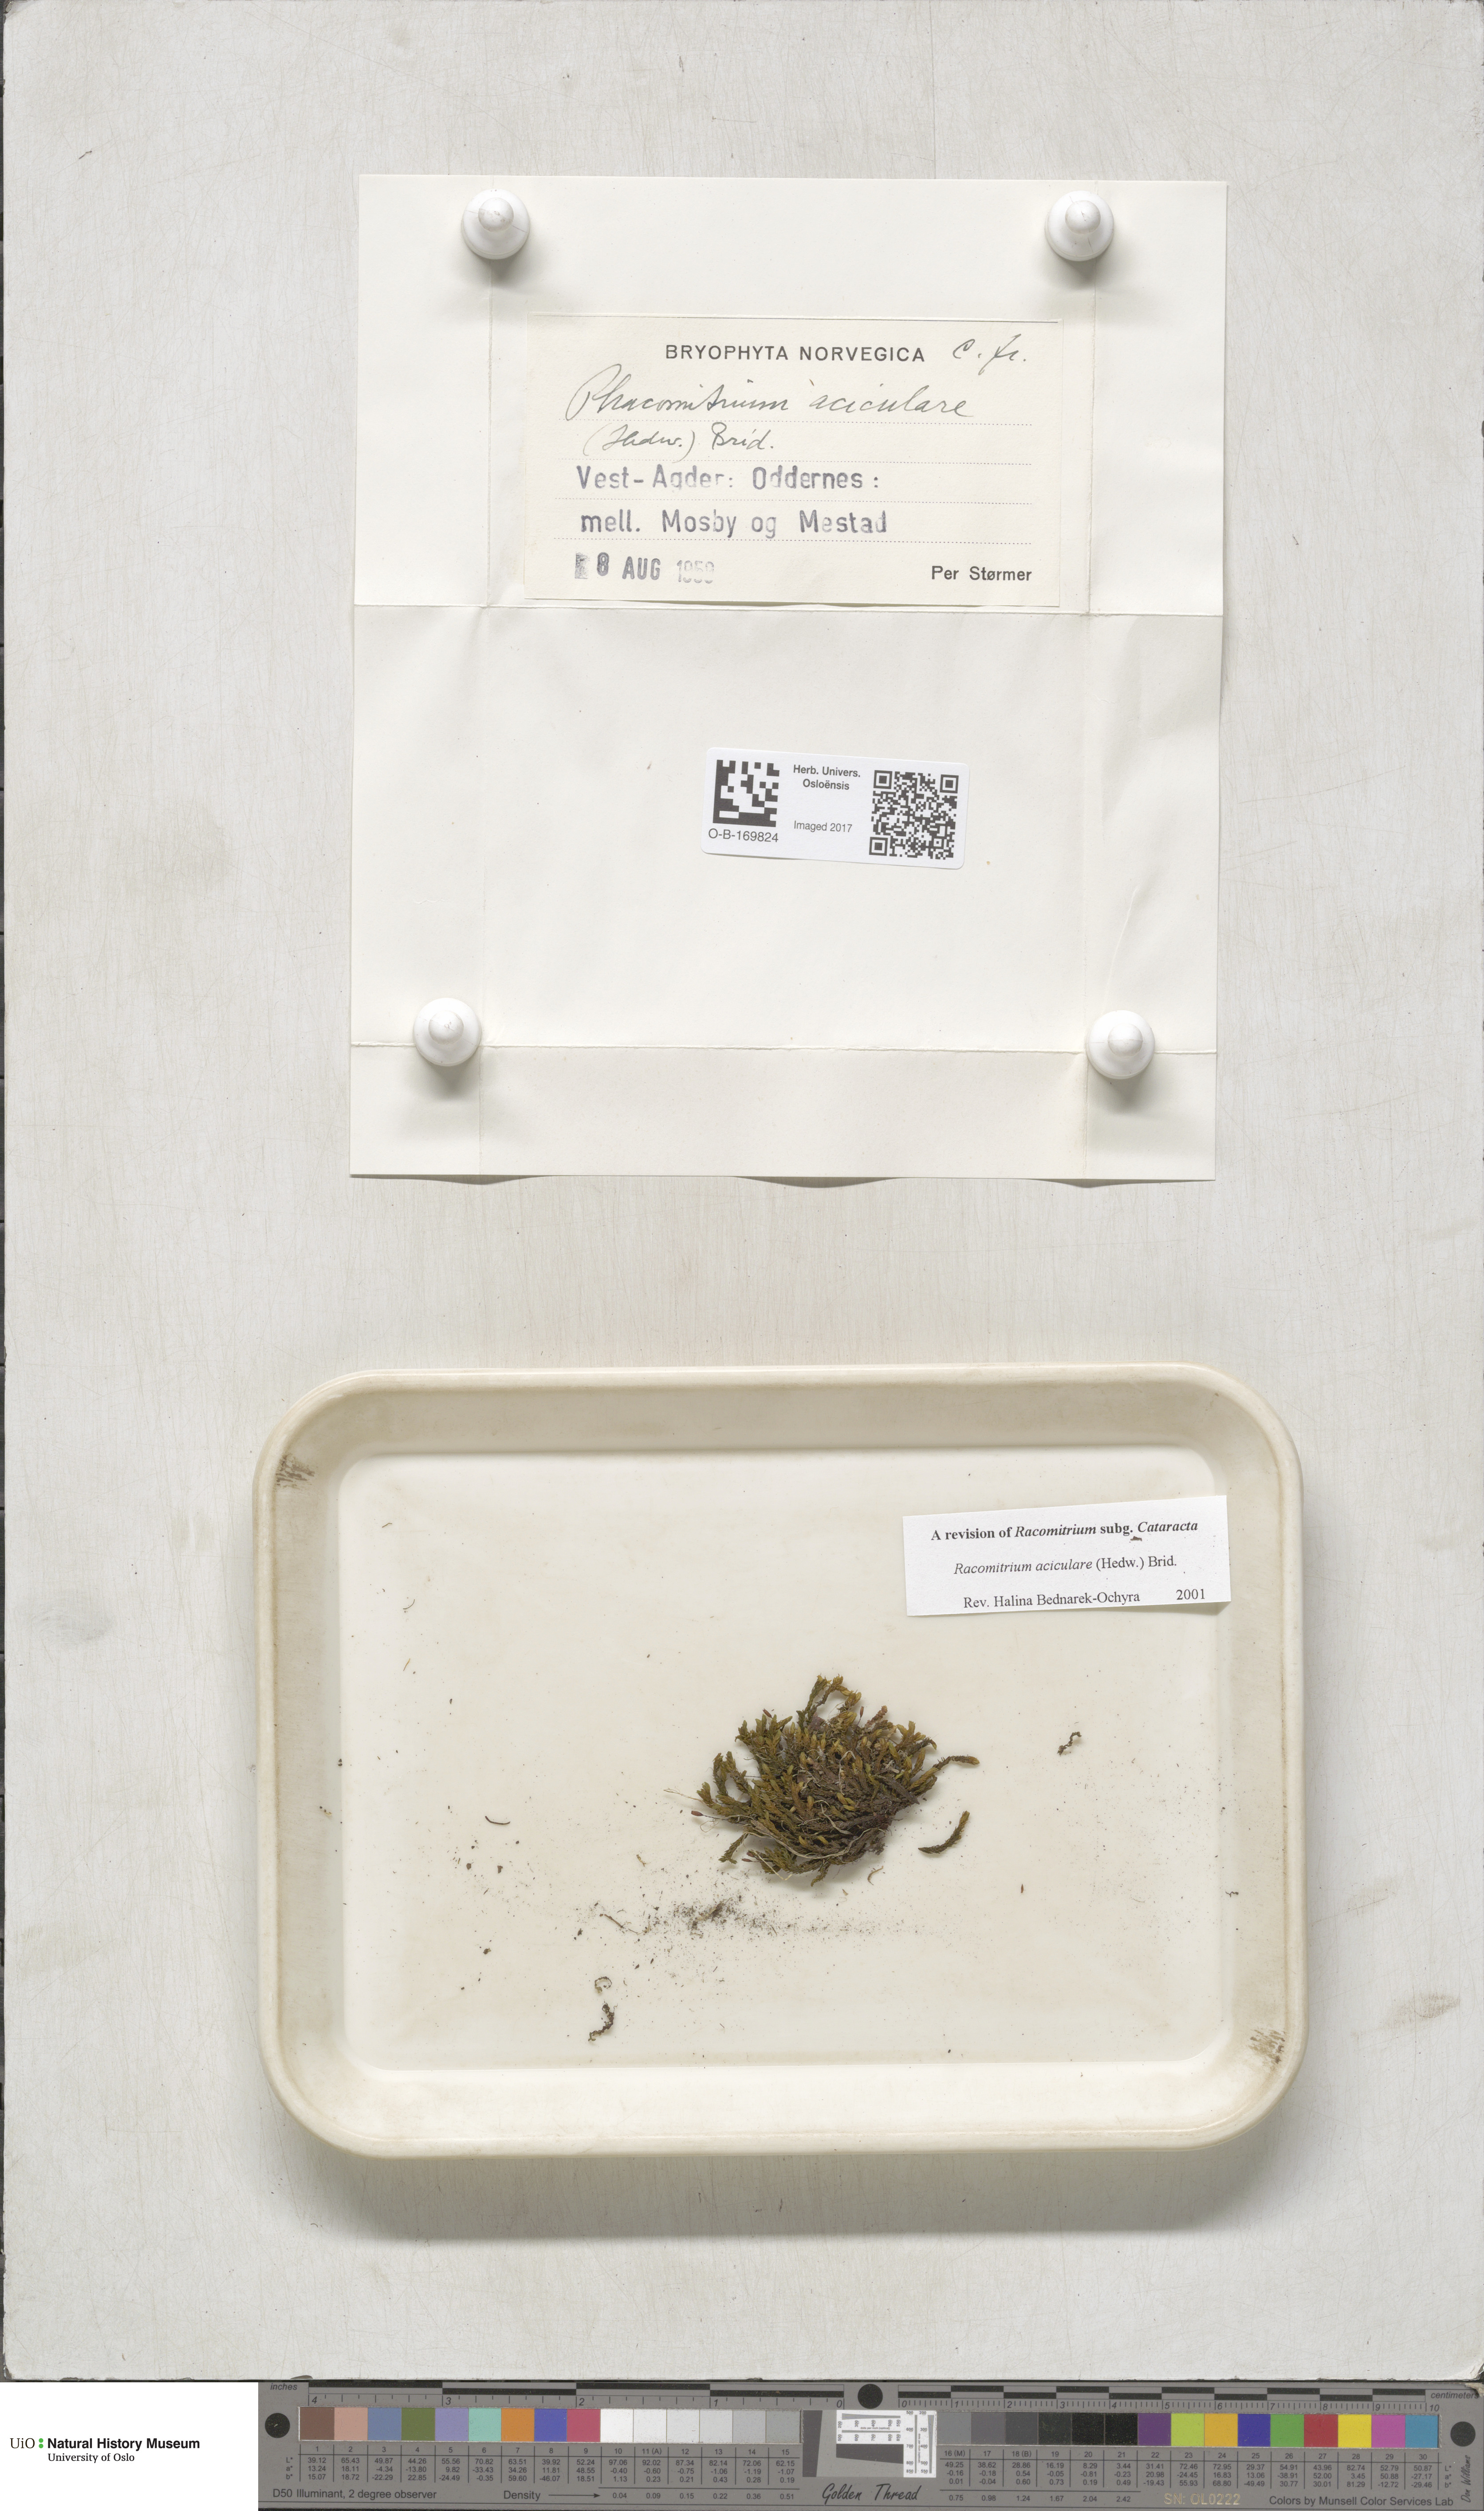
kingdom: Plantae
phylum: Bryophyta
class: Bryopsida
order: Grimmiales
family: Grimmiaceae
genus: Codriophorus
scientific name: Codriophorus acicularis
